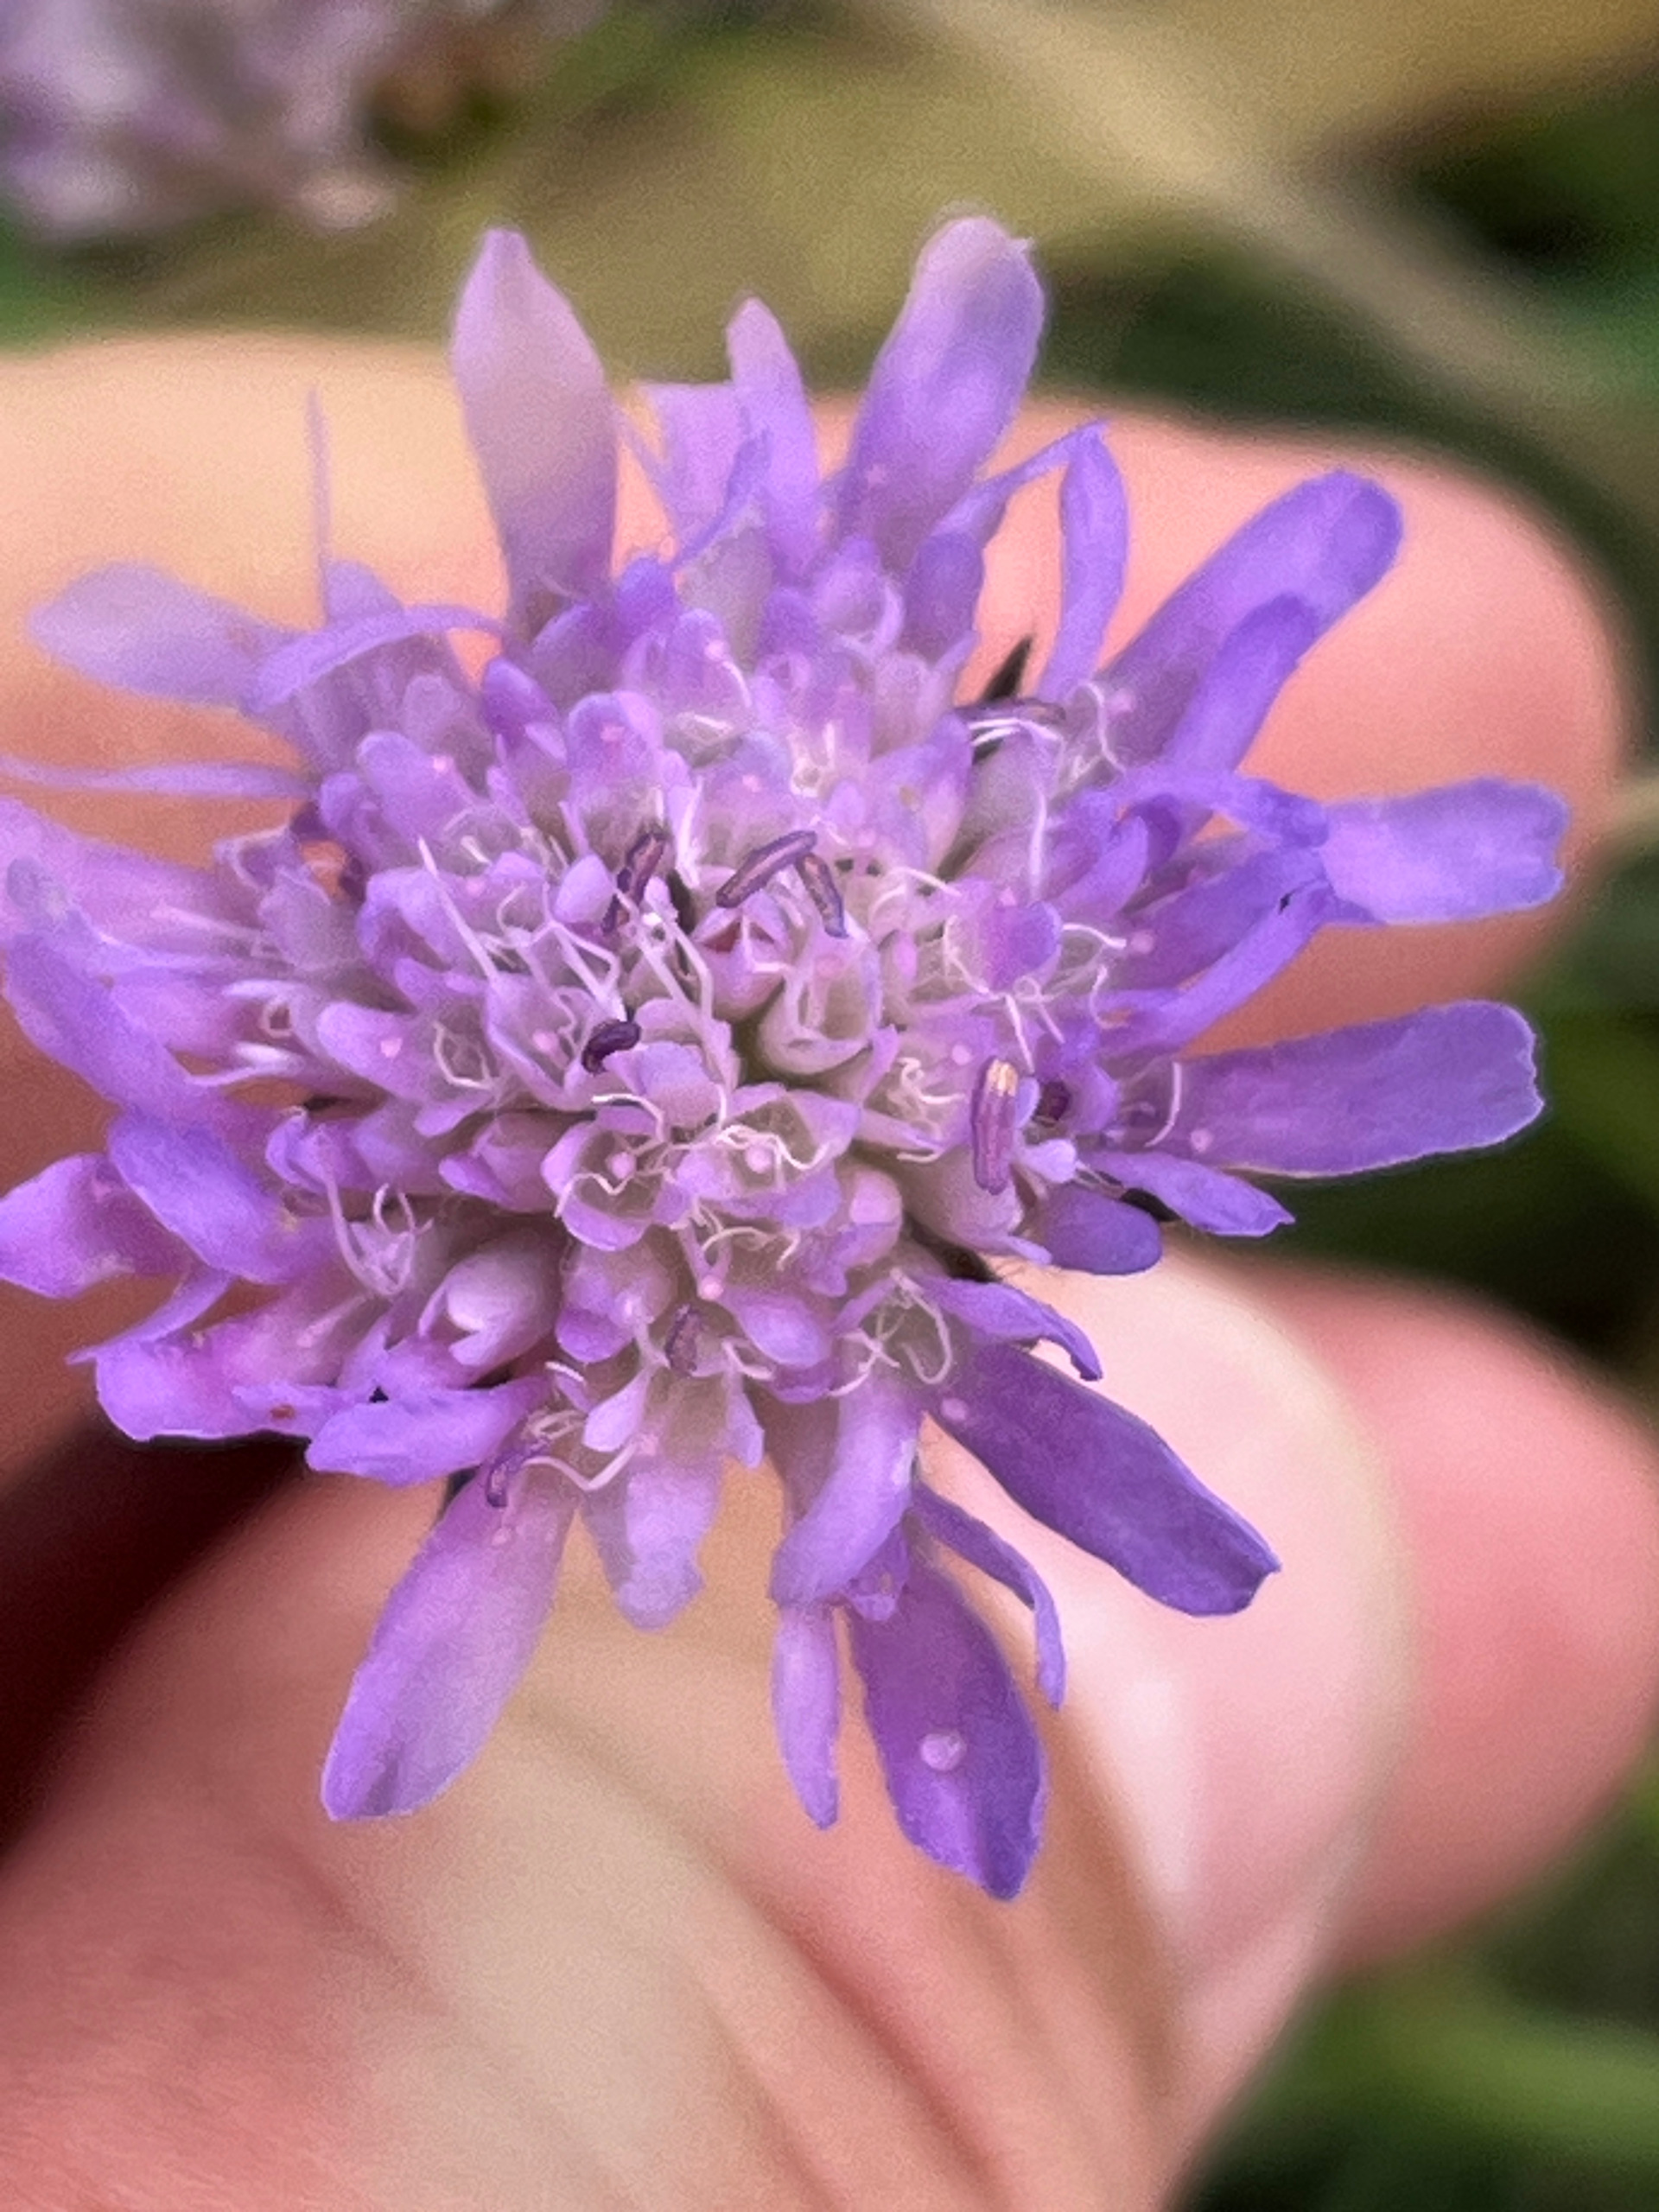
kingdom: Plantae
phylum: Tracheophyta
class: Magnoliopsida
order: Dipsacales
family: Caprifoliaceae
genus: Knautia
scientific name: Knautia arvensis
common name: Blåhat
